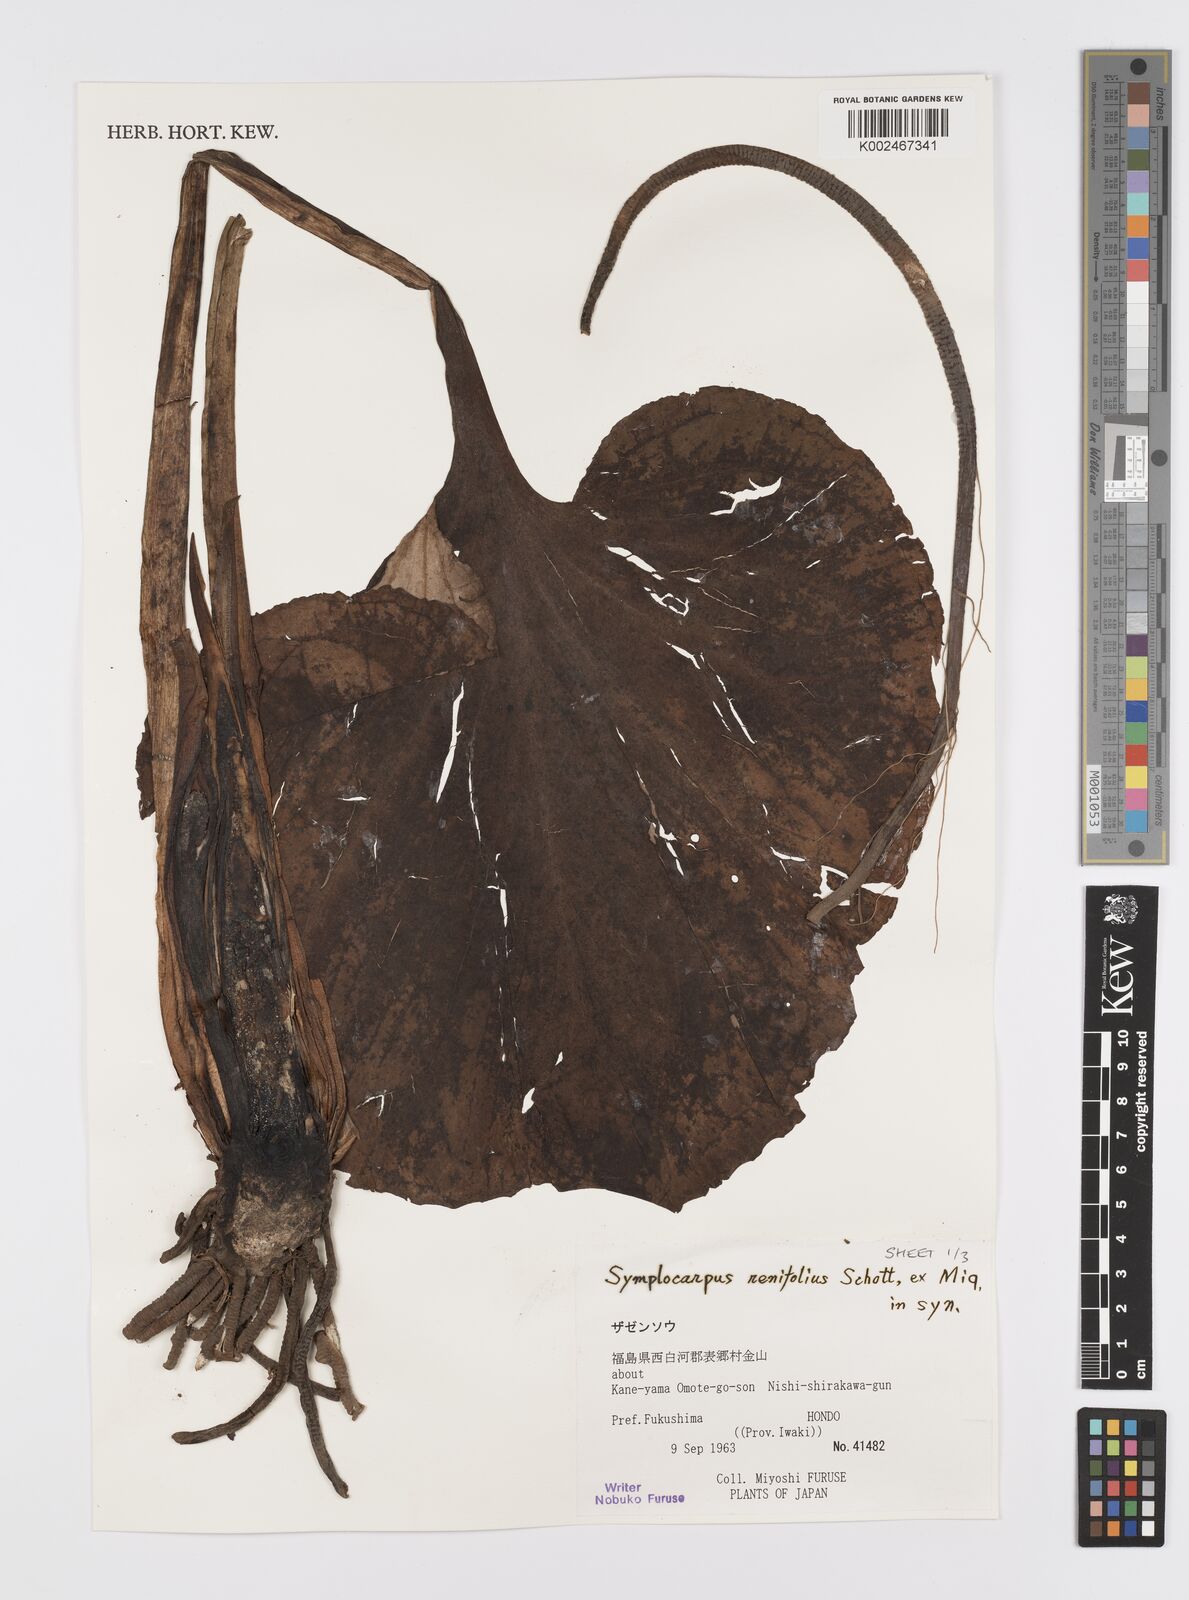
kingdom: Plantae
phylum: Tracheophyta
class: Liliopsida
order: Alismatales
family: Araceae
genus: Symplocarpus
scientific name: Symplocarpus renifolius
